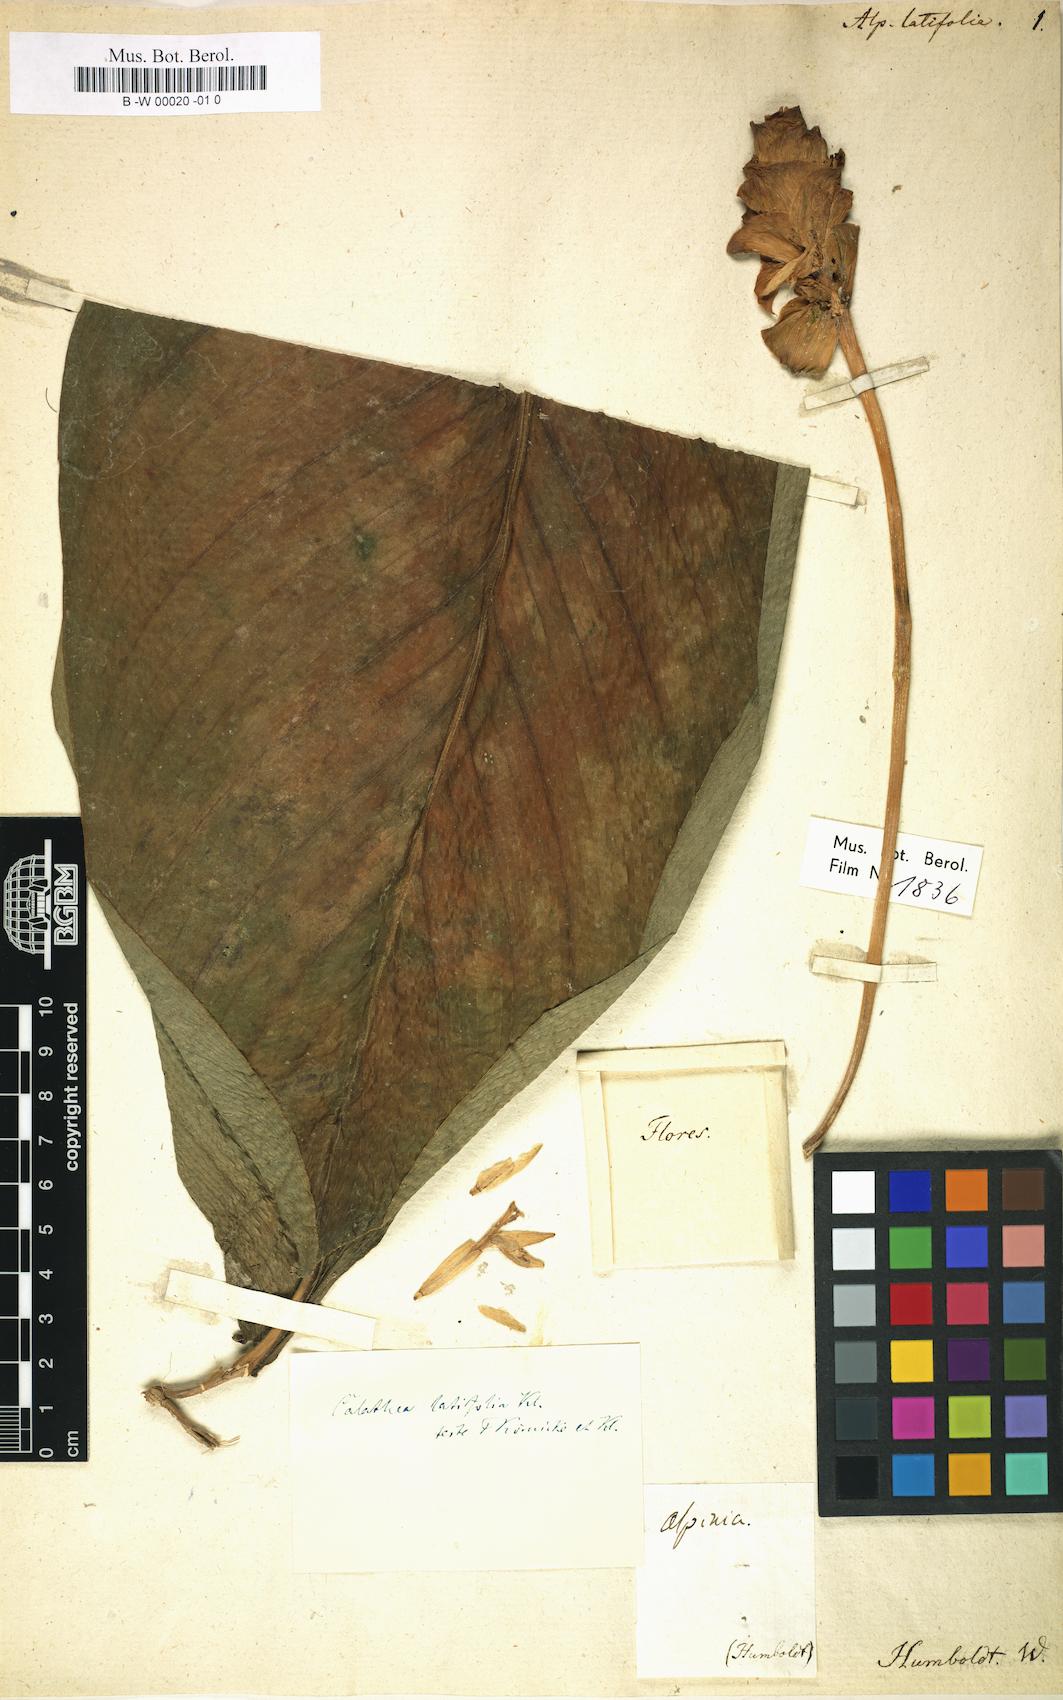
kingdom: Plantae
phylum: Tracheophyta
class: Liliopsida
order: Zingiberales
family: Marantaceae
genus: Goeppertia
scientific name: Goeppertia latifolia
